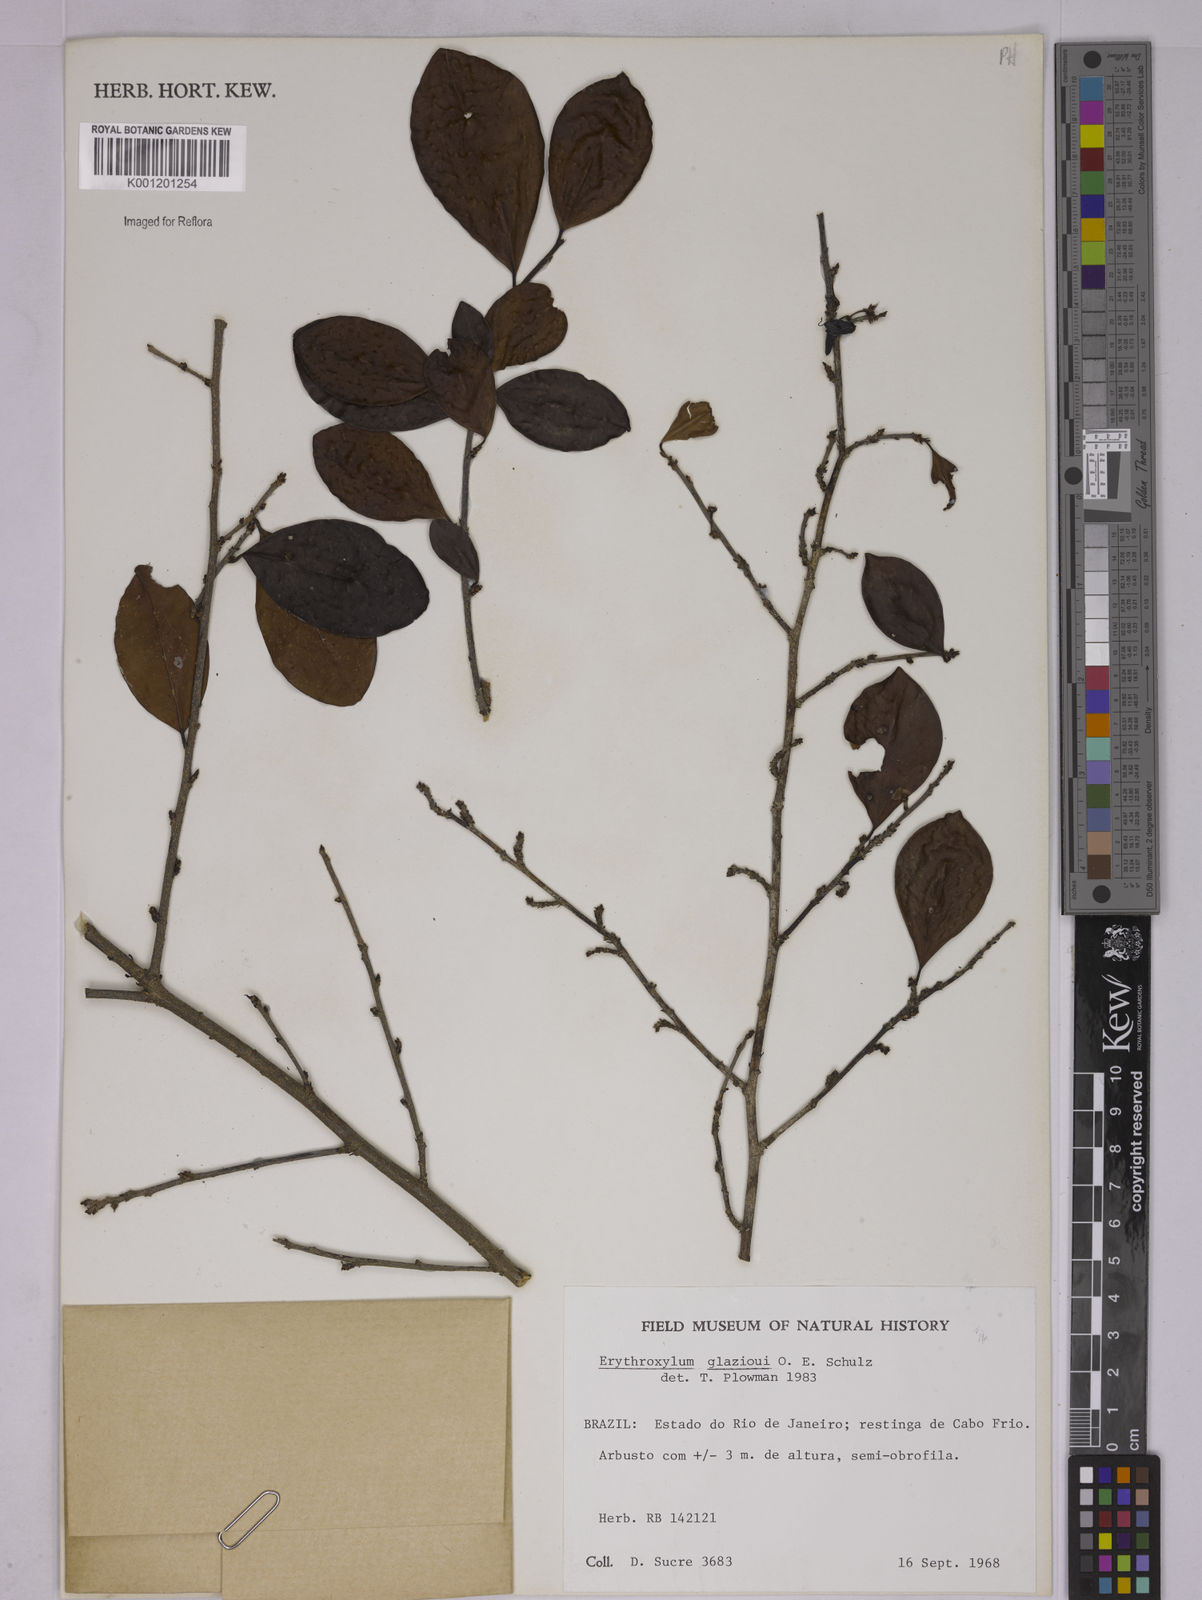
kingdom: Plantae
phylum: Tracheophyta
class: Magnoliopsida
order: Malpighiales
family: Erythroxylaceae
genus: Erythroxylum
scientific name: Erythroxylum
